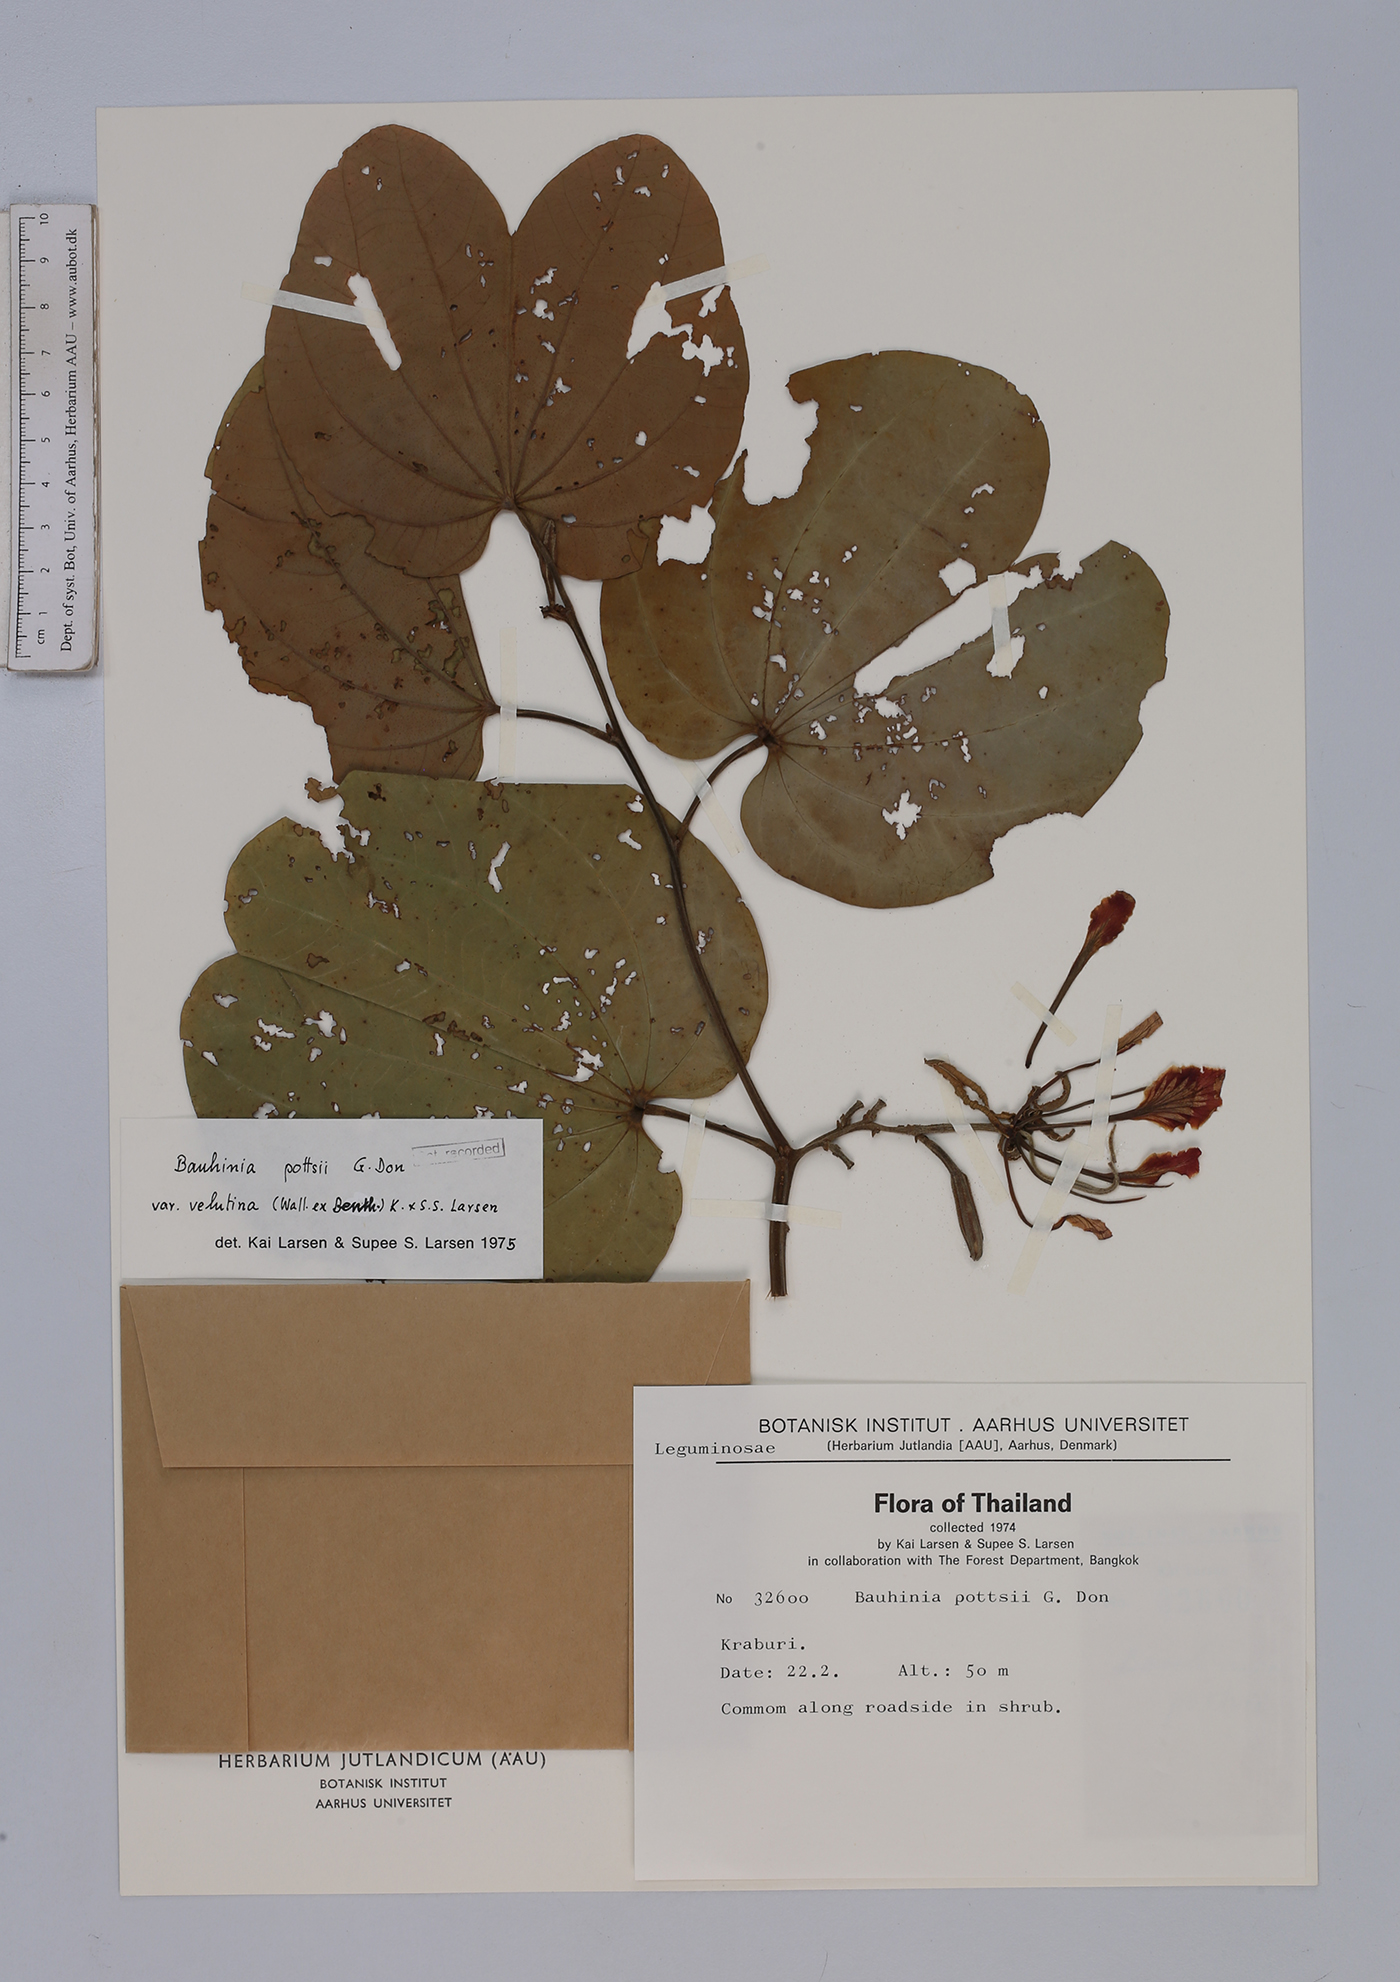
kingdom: Plantae
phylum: Tracheophyta
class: Magnoliopsida
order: Fabales
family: Fabaceae
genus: Bauhinia
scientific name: Bauhinia pottsii
